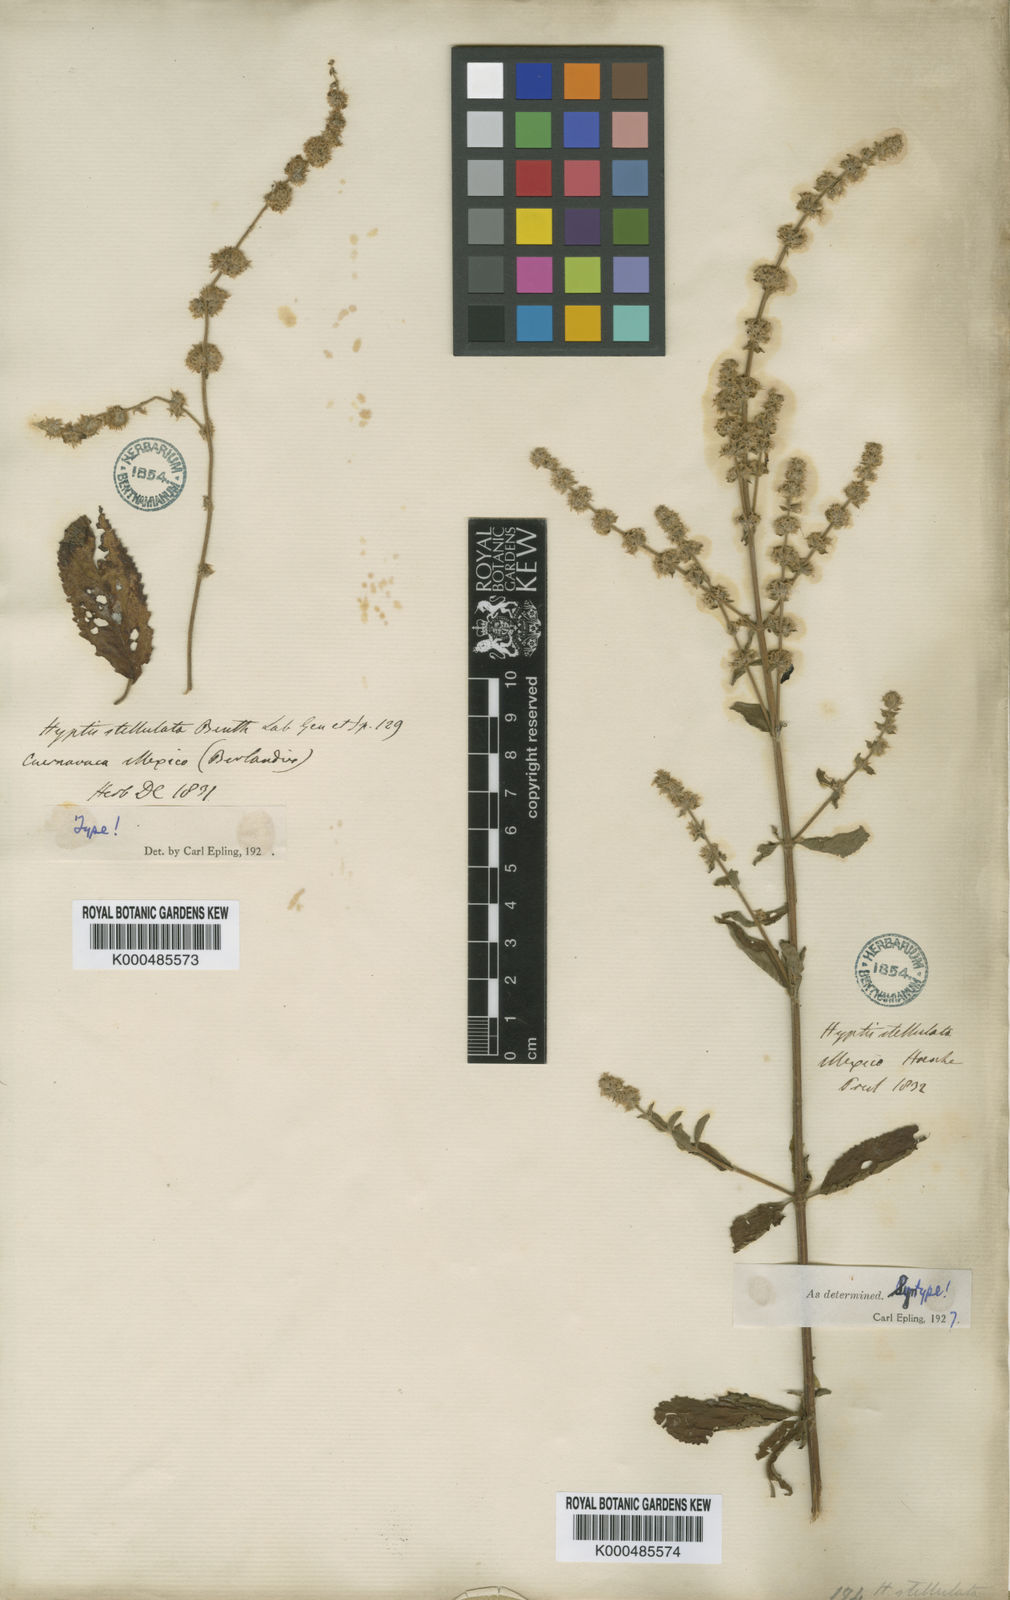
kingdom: Plantae
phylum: Tracheophyta
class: Magnoliopsida
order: Lamiales
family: Lamiaceae
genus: Asterohyptis
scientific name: Asterohyptis stellulata
